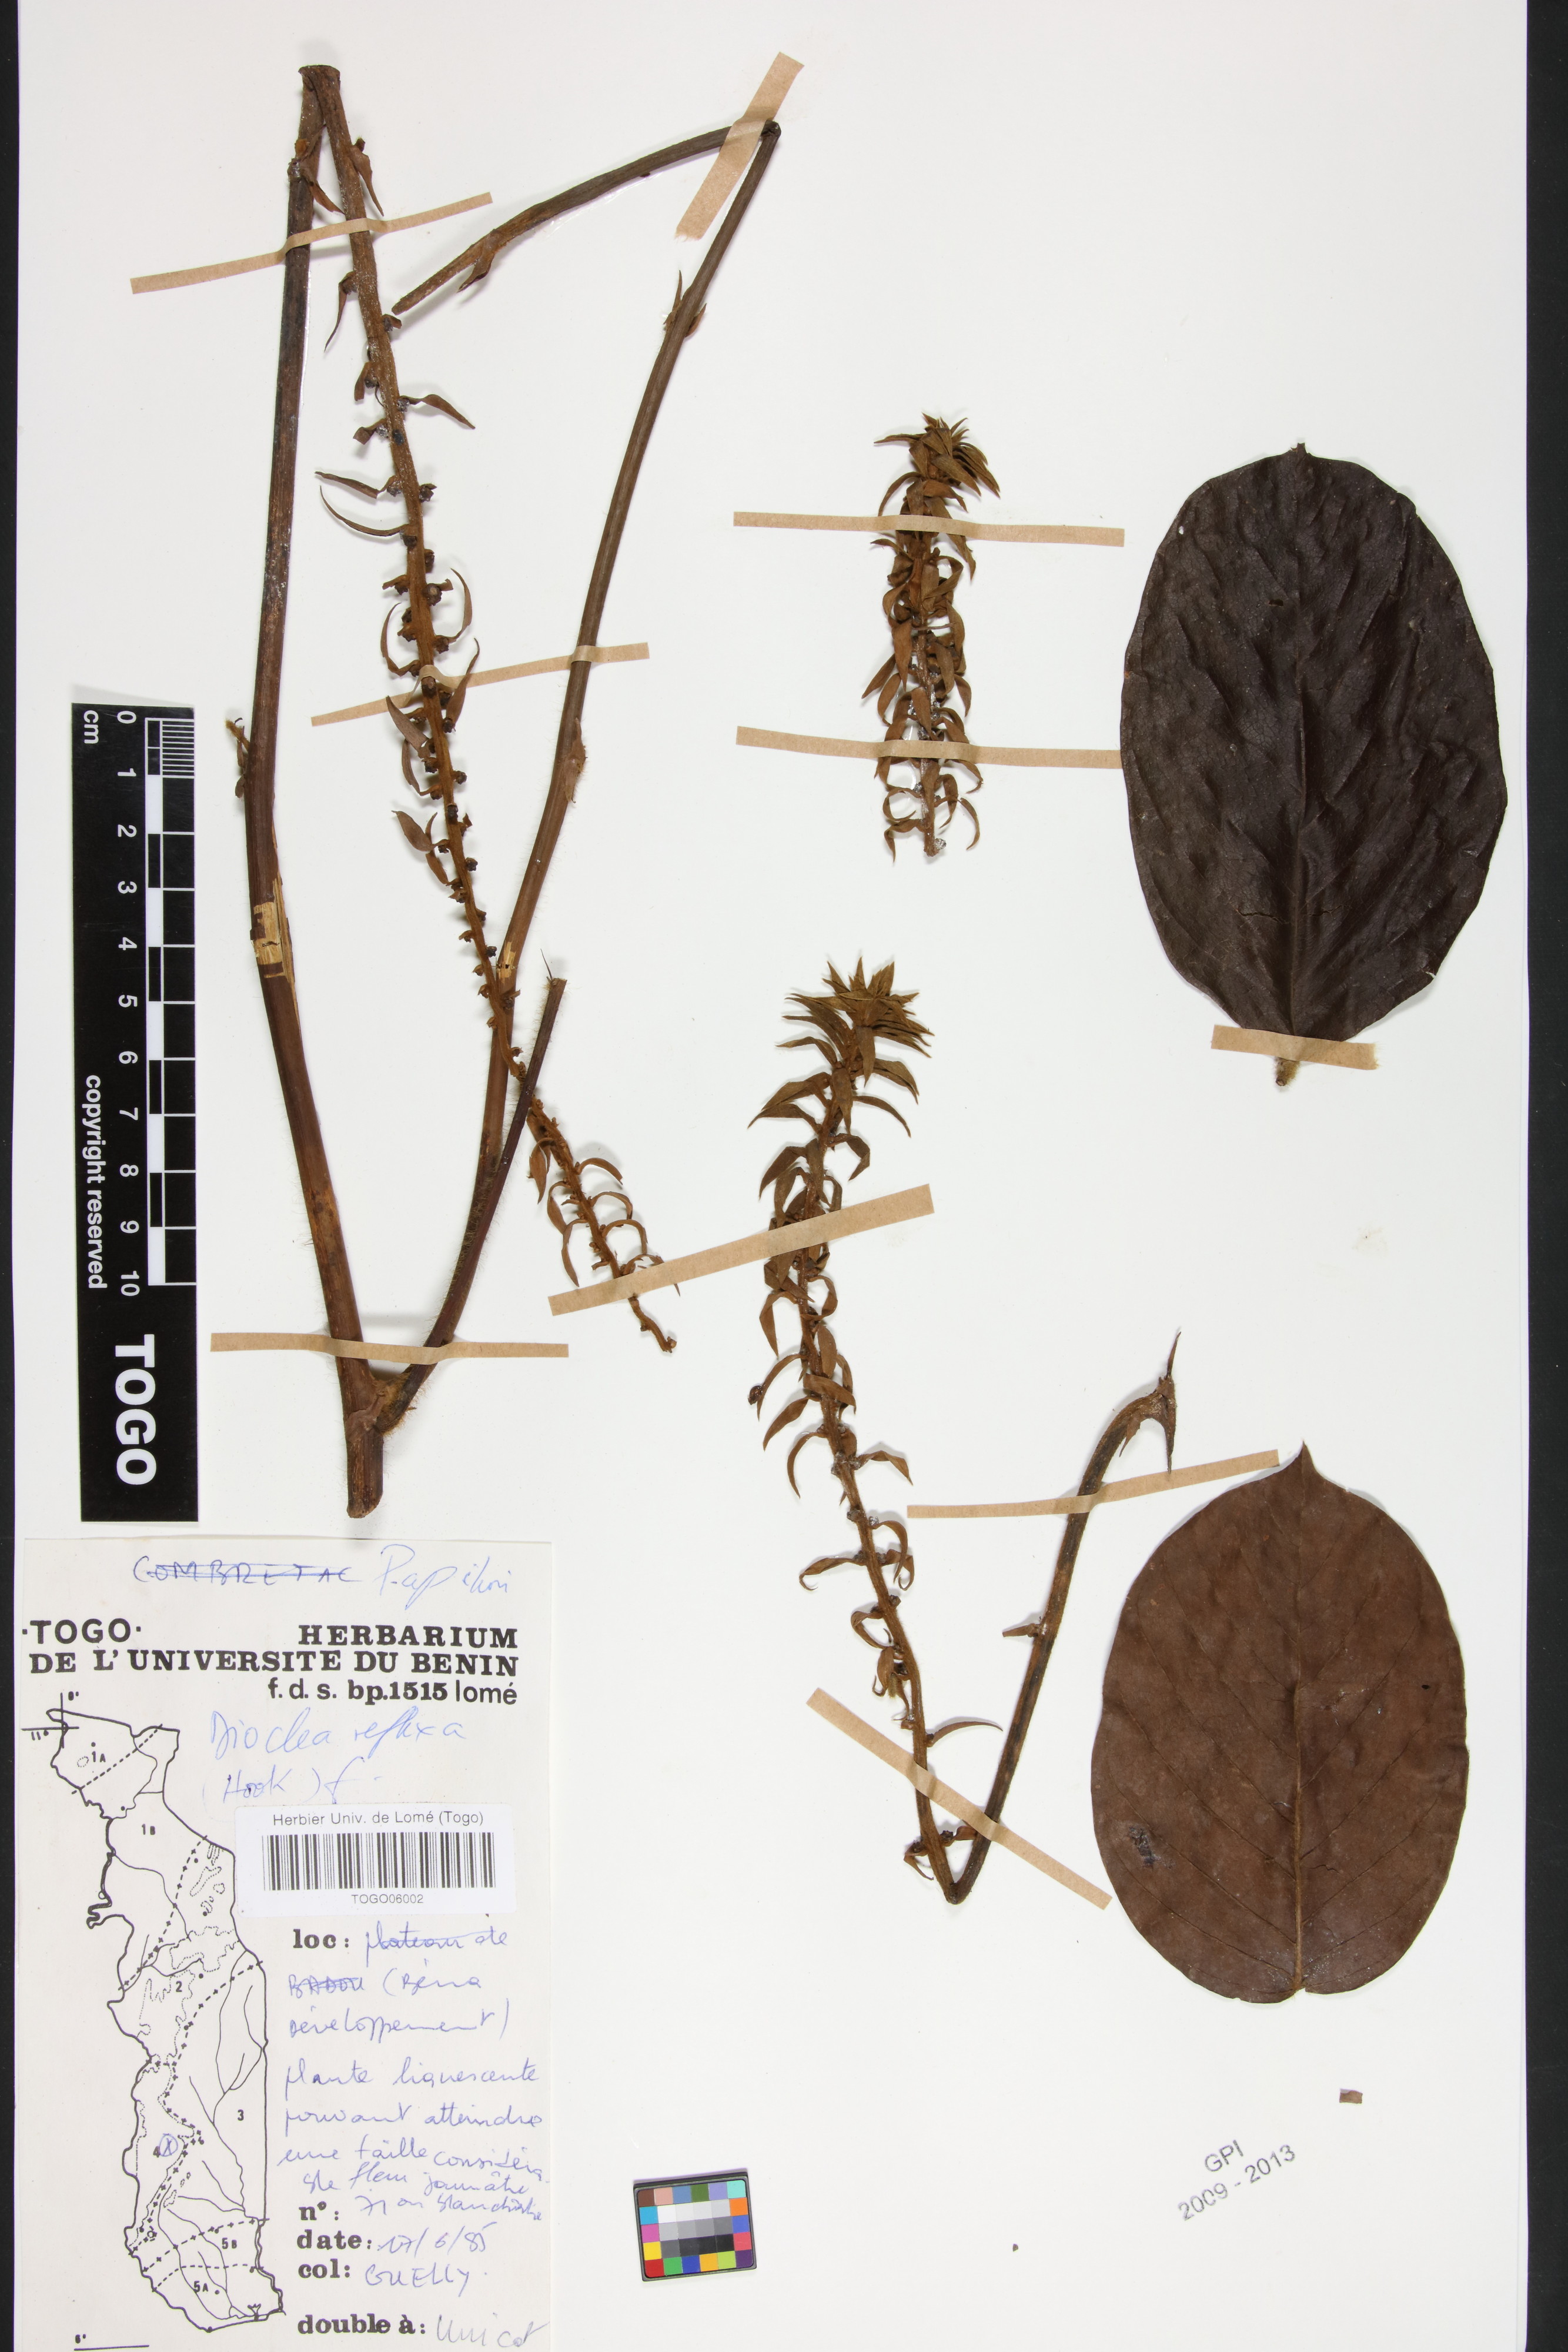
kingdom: Plantae
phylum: Tracheophyta
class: Magnoliopsida
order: Fabales
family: Fabaceae
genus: Macropsychanthus
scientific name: Macropsychanthus comosus
